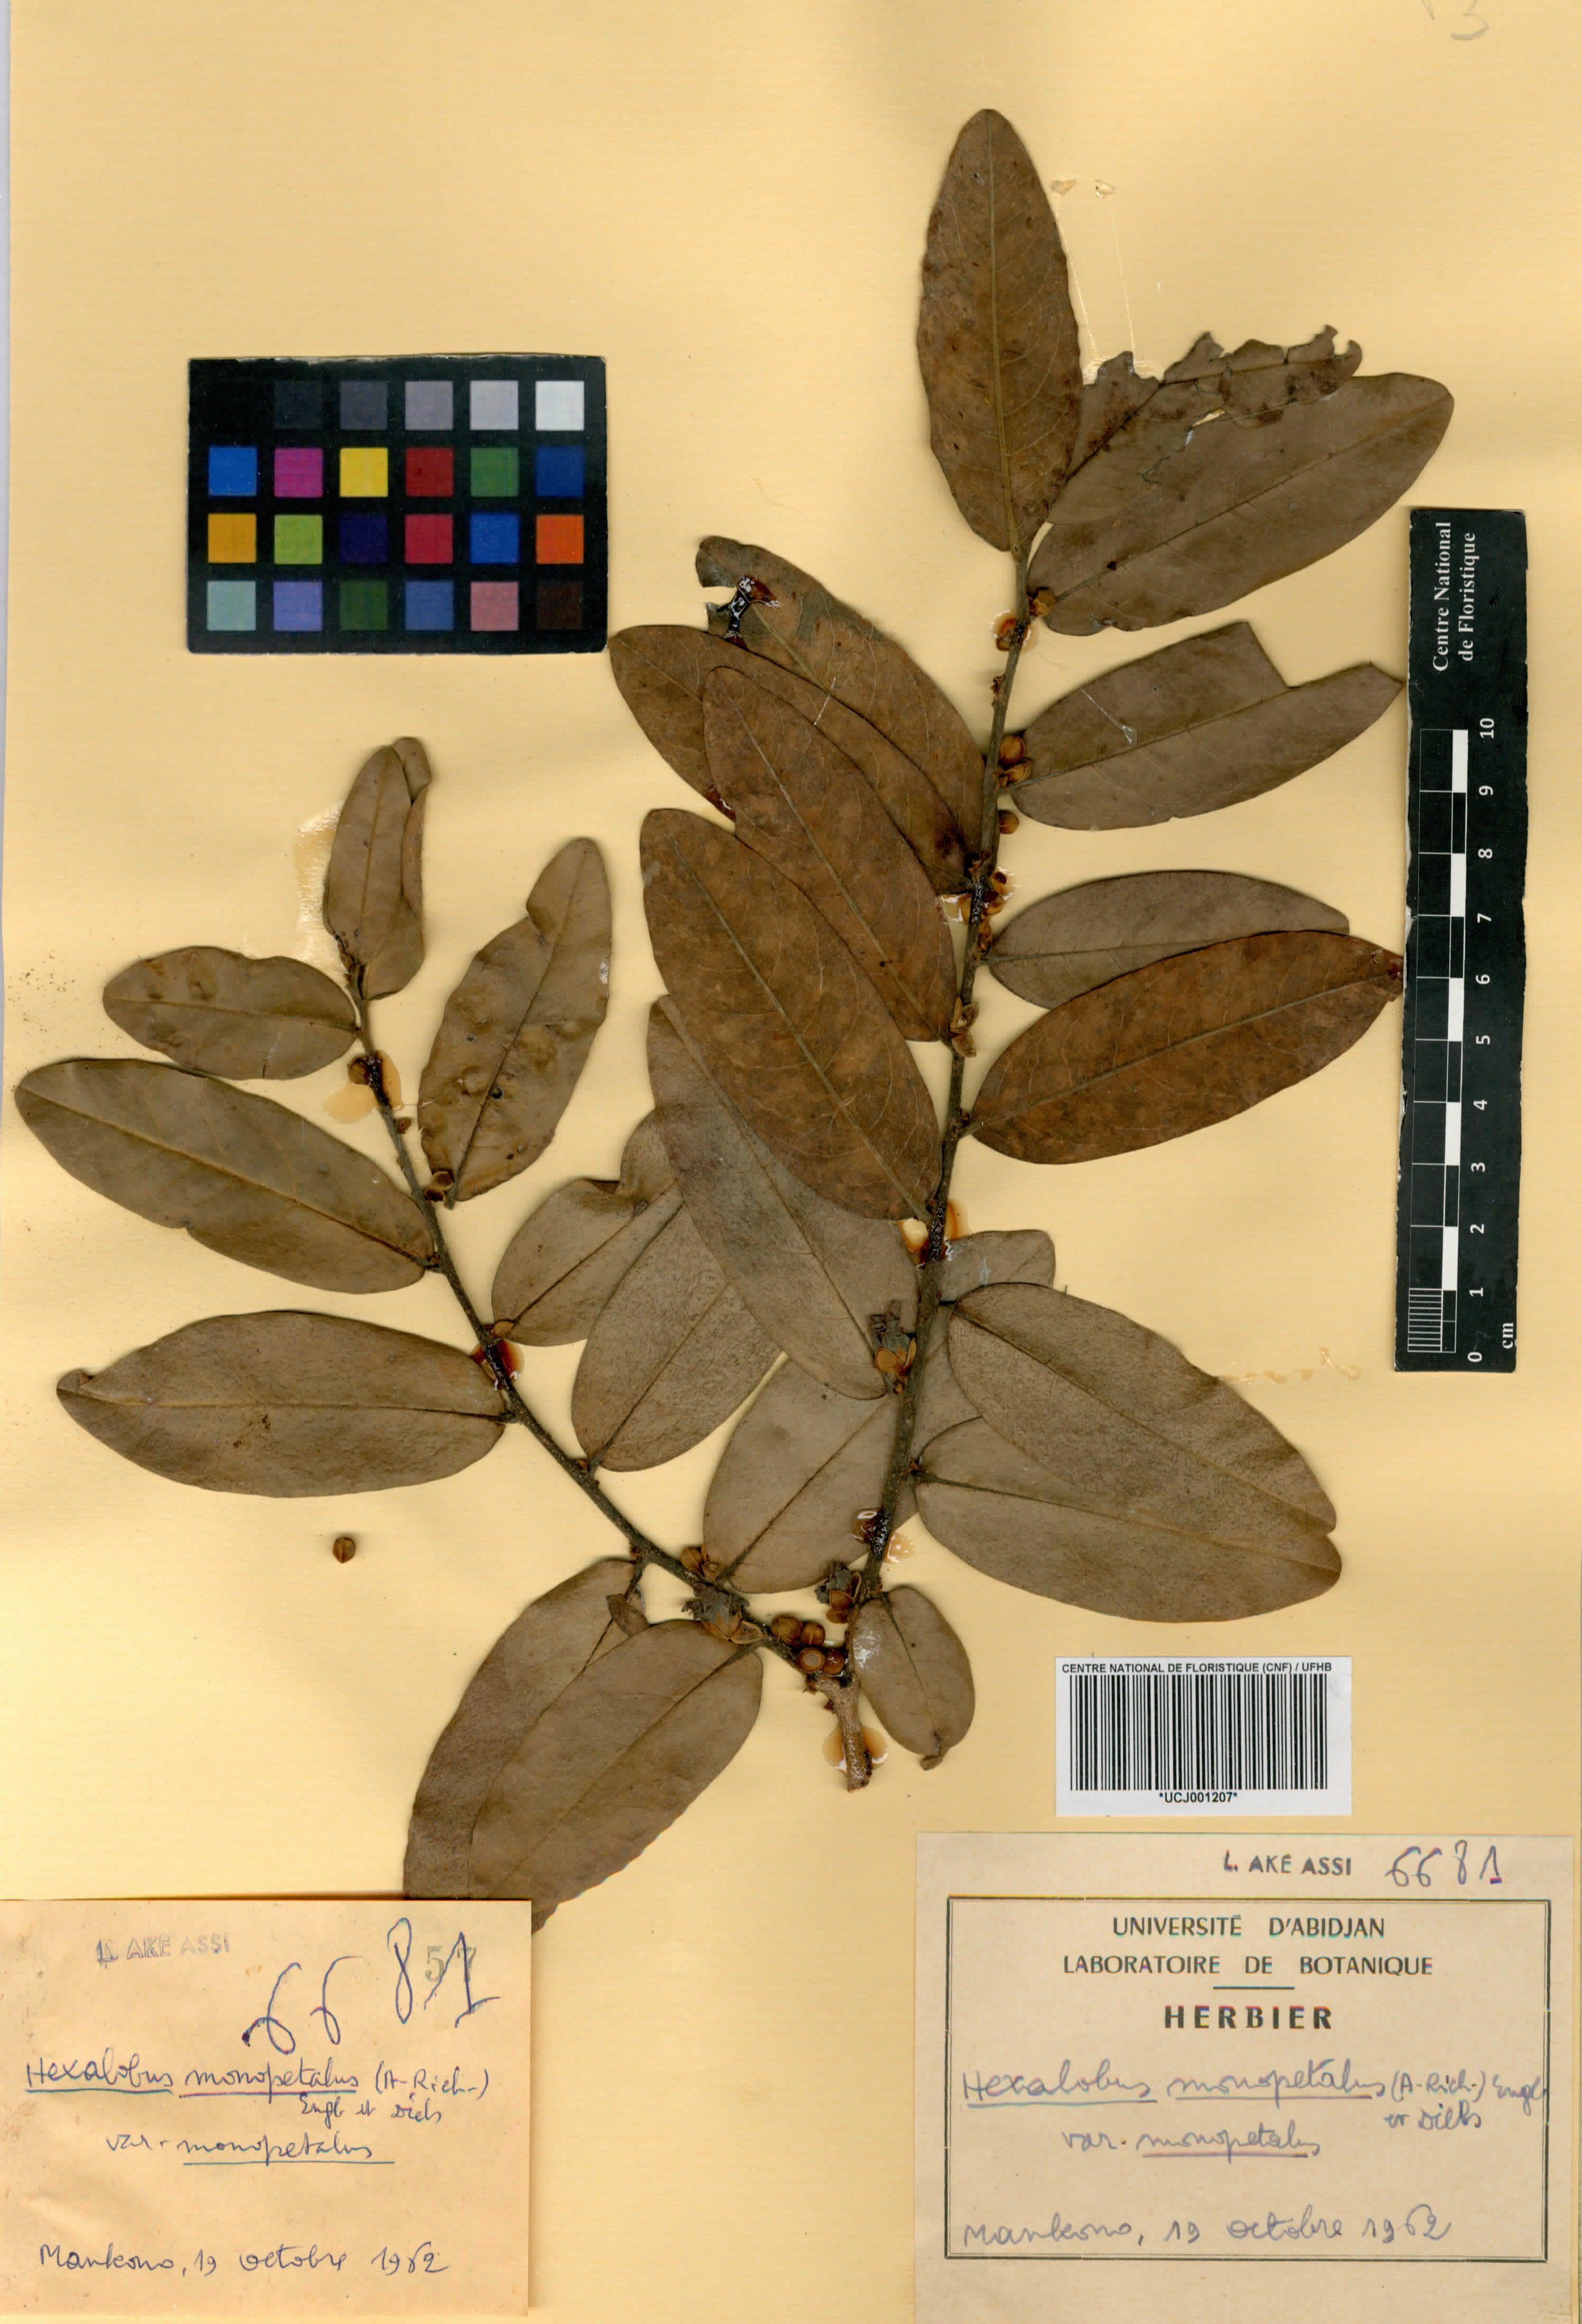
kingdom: Plantae
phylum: Tracheophyta
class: Magnoliopsida
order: Magnoliales
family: Annonaceae
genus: Hexalobus
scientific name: Hexalobus monopetalus
